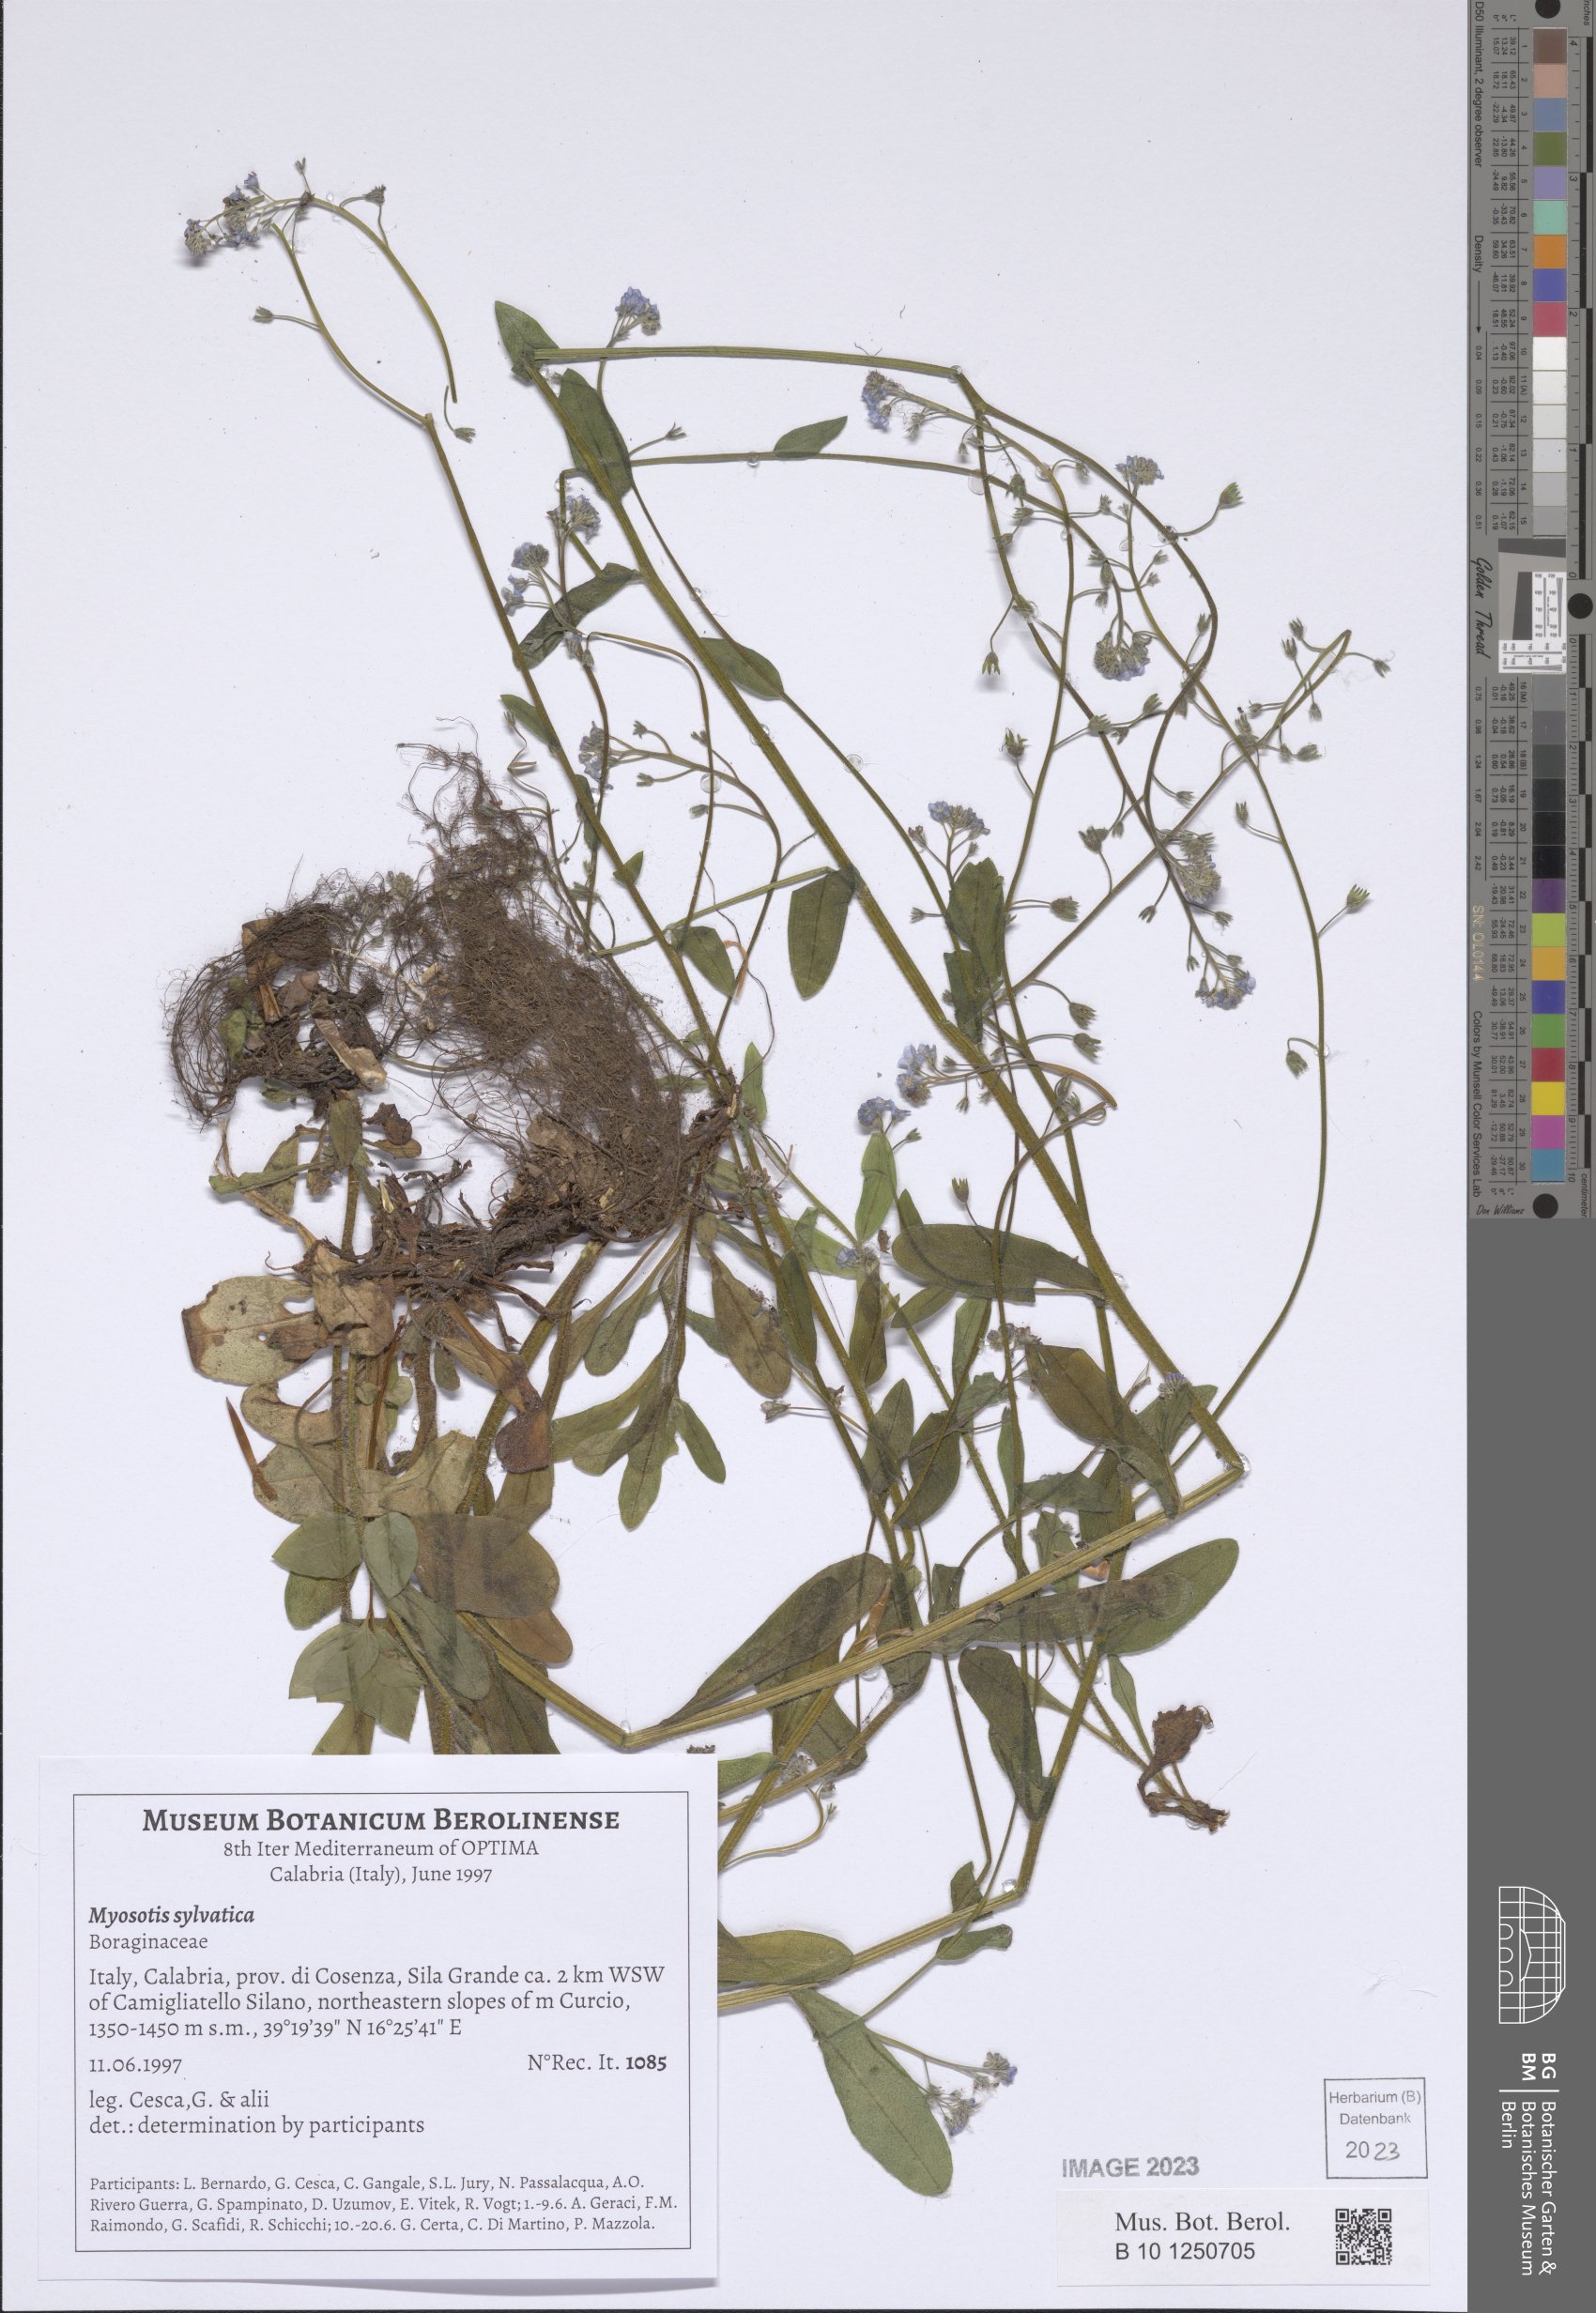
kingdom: Plantae
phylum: Tracheophyta
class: Magnoliopsida
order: Boraginales
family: Boraginaceae
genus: Myosotis
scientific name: Myosotis sylvatica
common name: Wood forget-me-not
